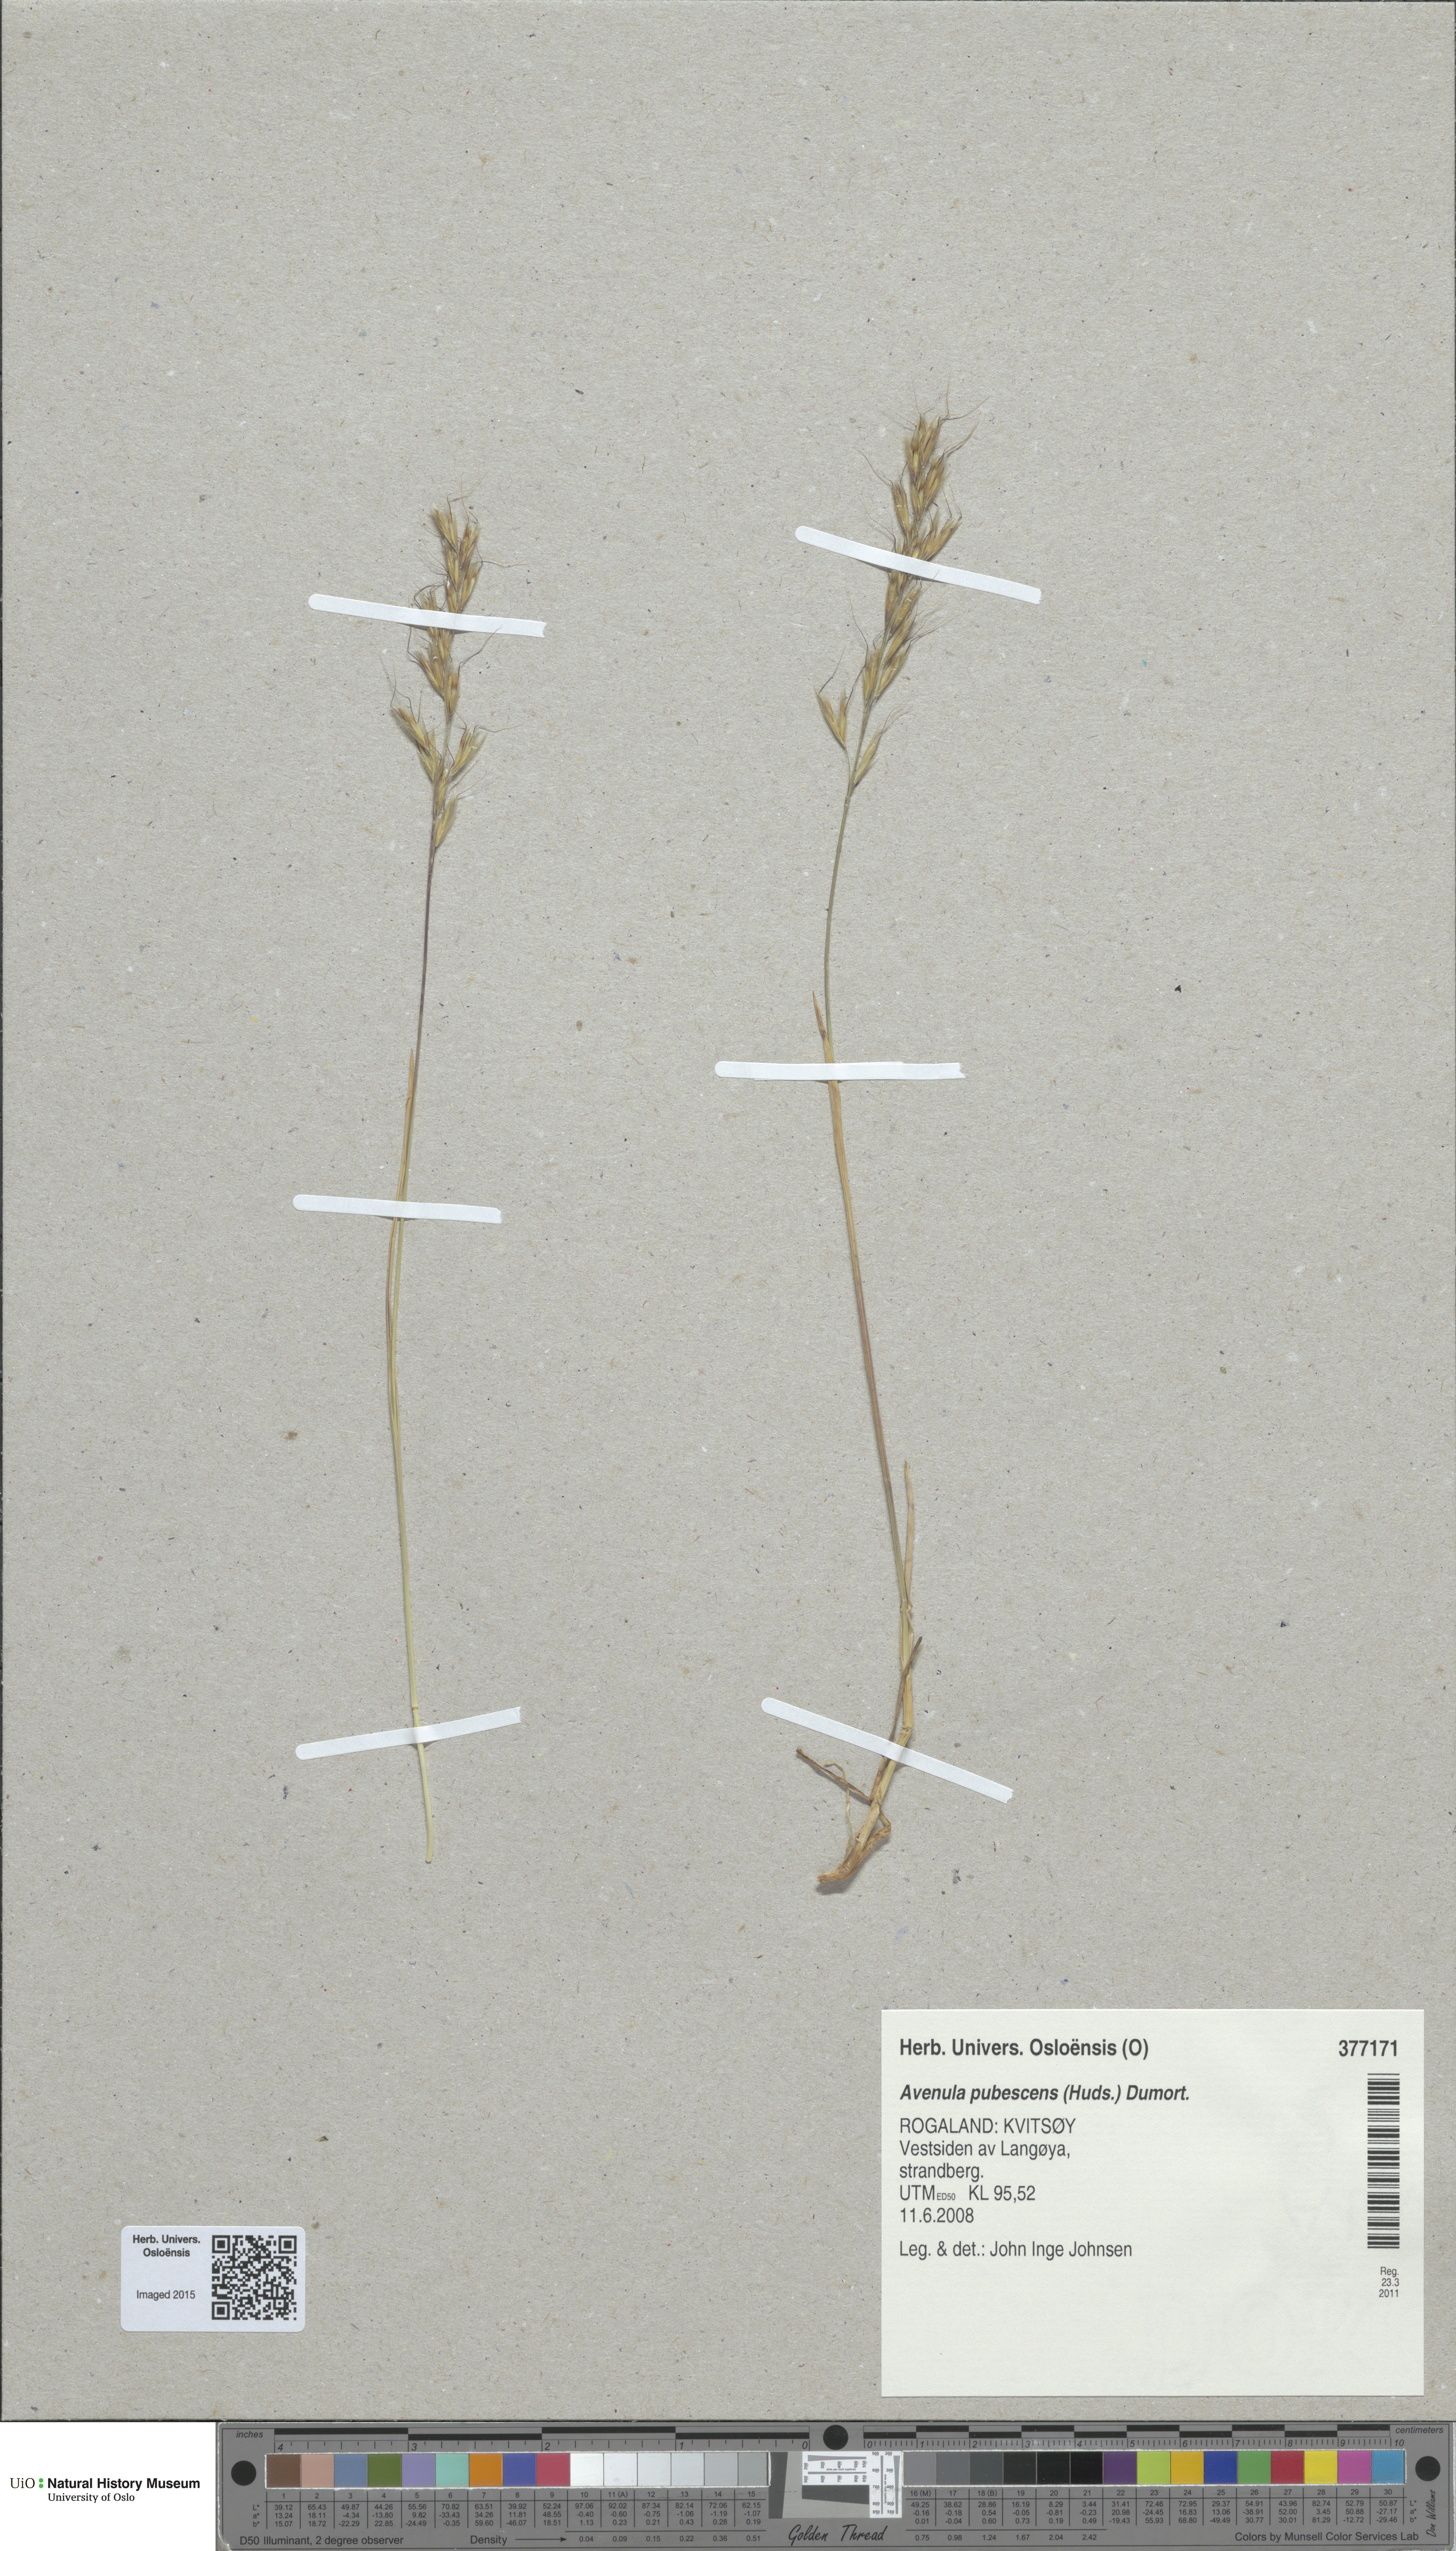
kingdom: Plantae
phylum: Tracheophyta
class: Liliopsida
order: Poales
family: Poaceae
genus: Avenula
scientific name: Avenula pubescens
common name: Downy alpine oatgrass
